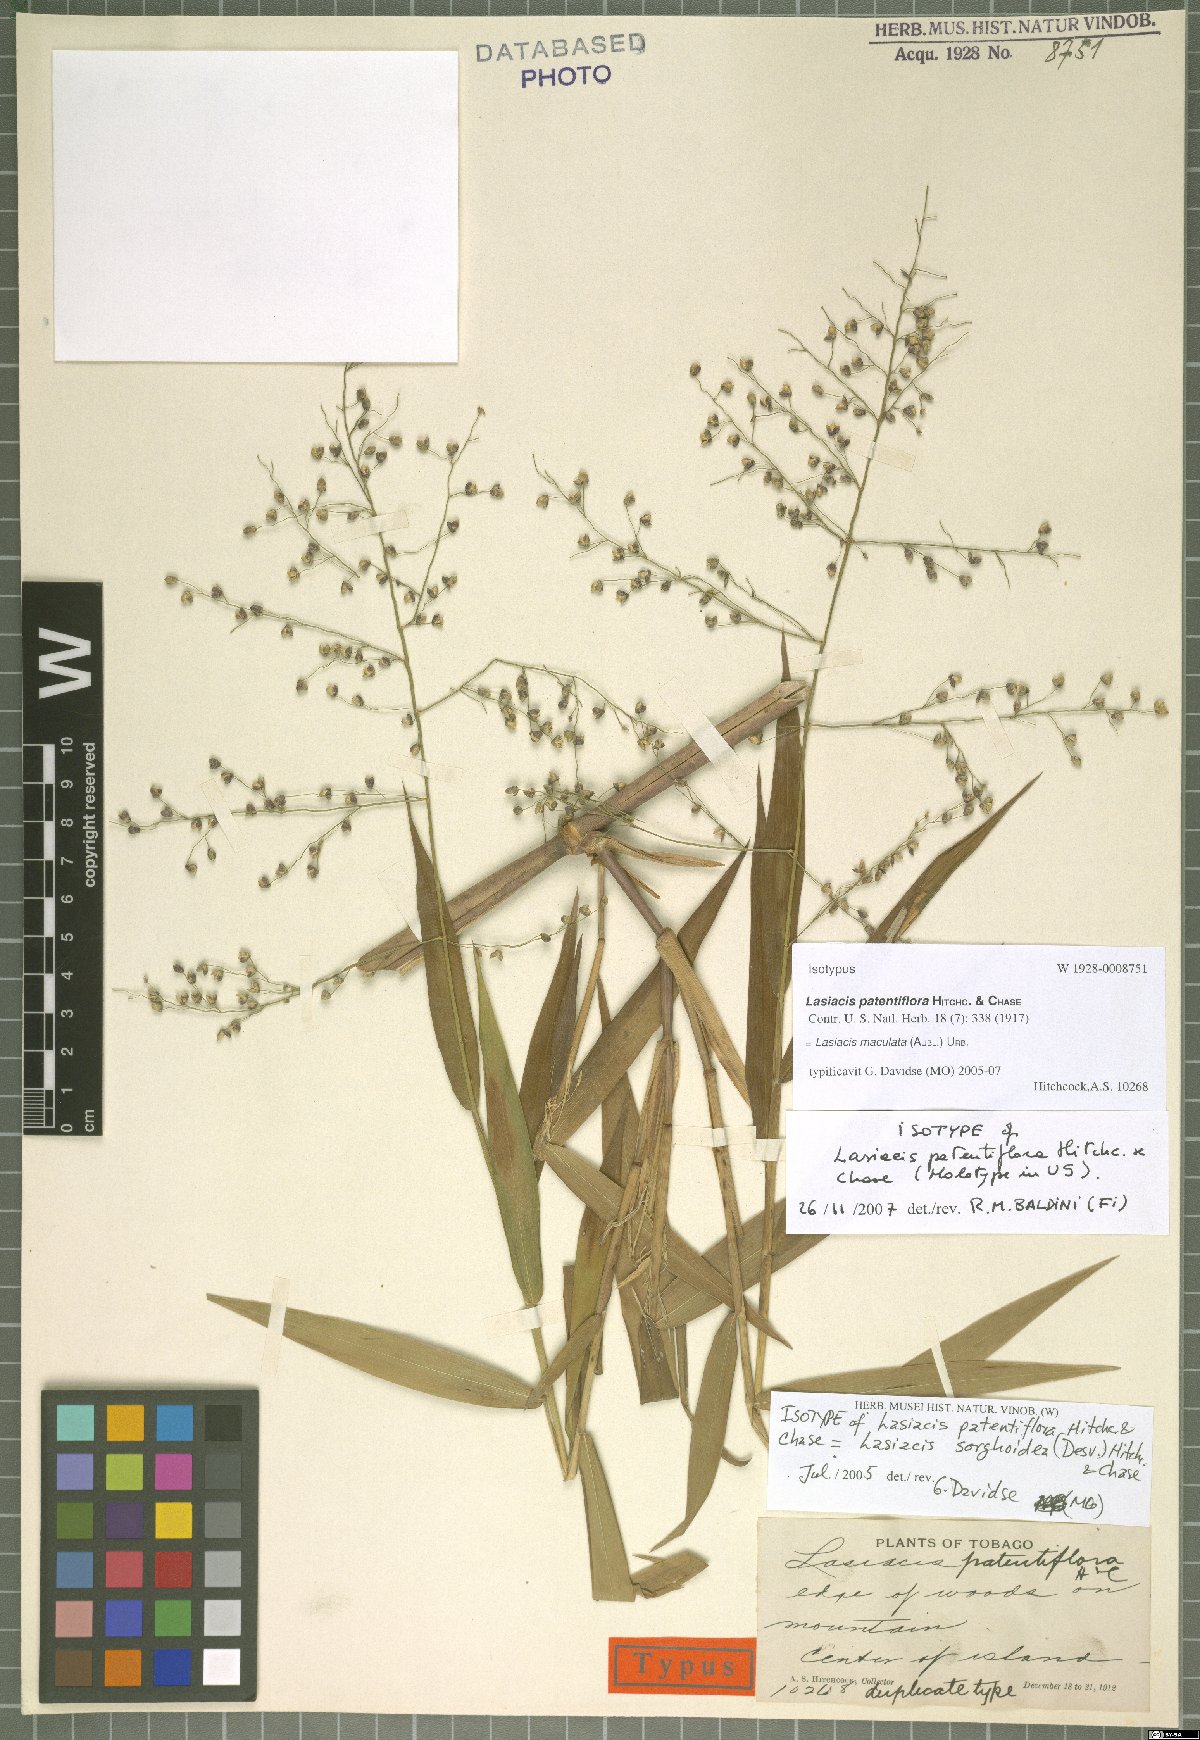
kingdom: Plantae
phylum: Tracheophyta
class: Liliopsida
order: Poales
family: Poaceae
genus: Lasiacis
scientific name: Lasiacis maculata
